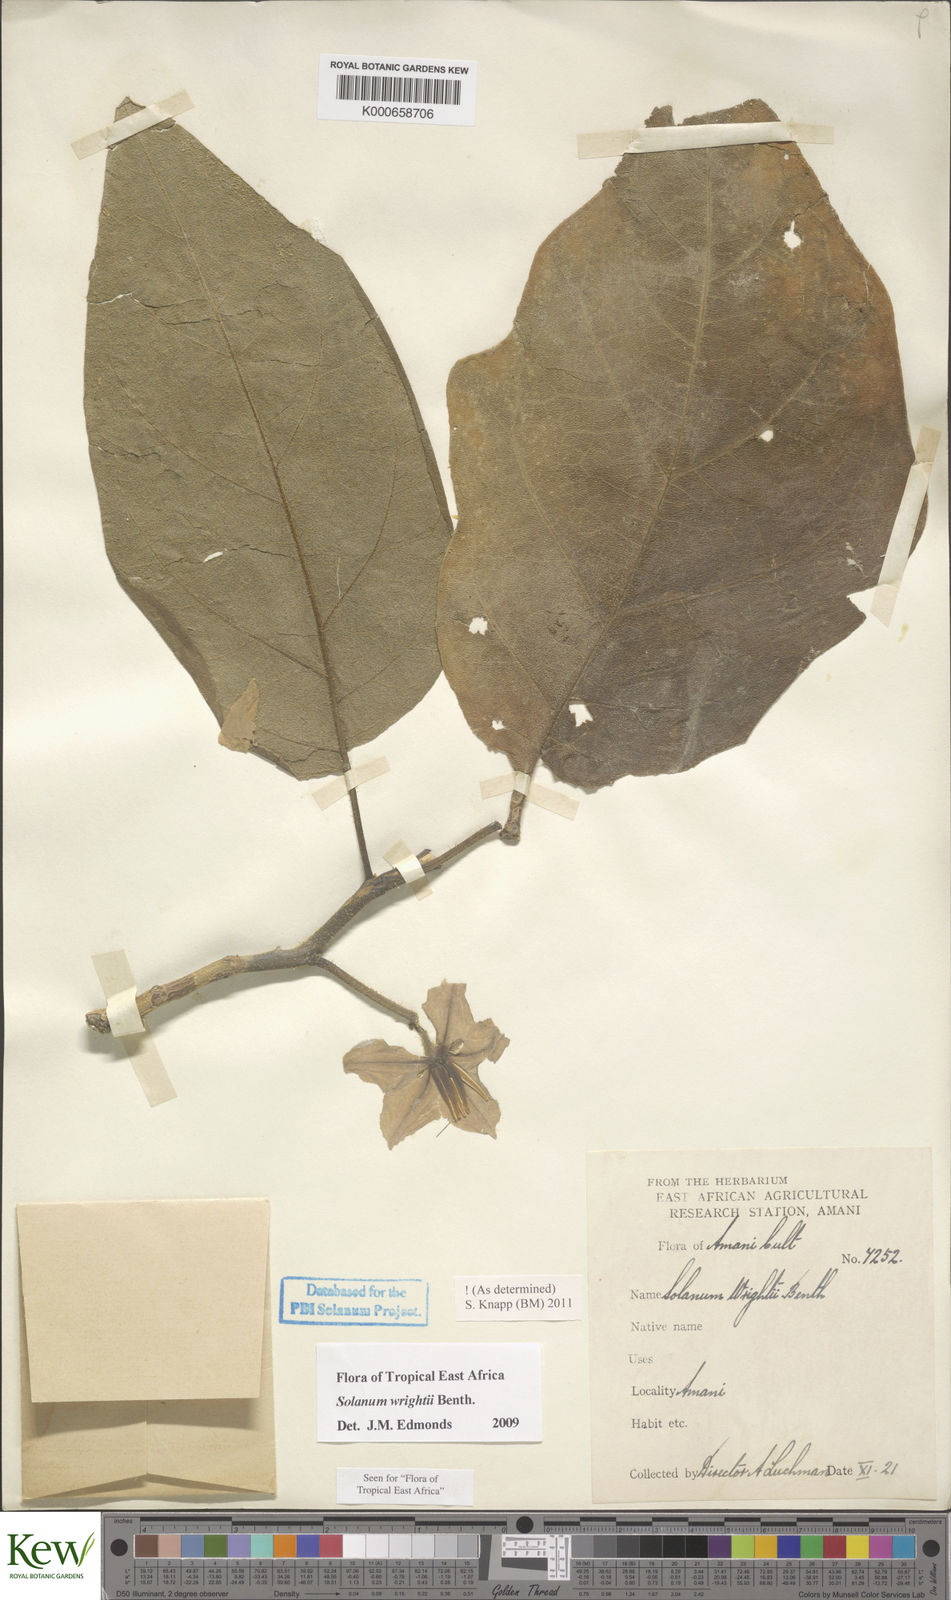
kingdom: Plantae
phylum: Tracheophyta
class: Magnoliopsida
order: Solanales
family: Solanaceae
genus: Solanum
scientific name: Solanum wrightii
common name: Brazilian potato-tree
